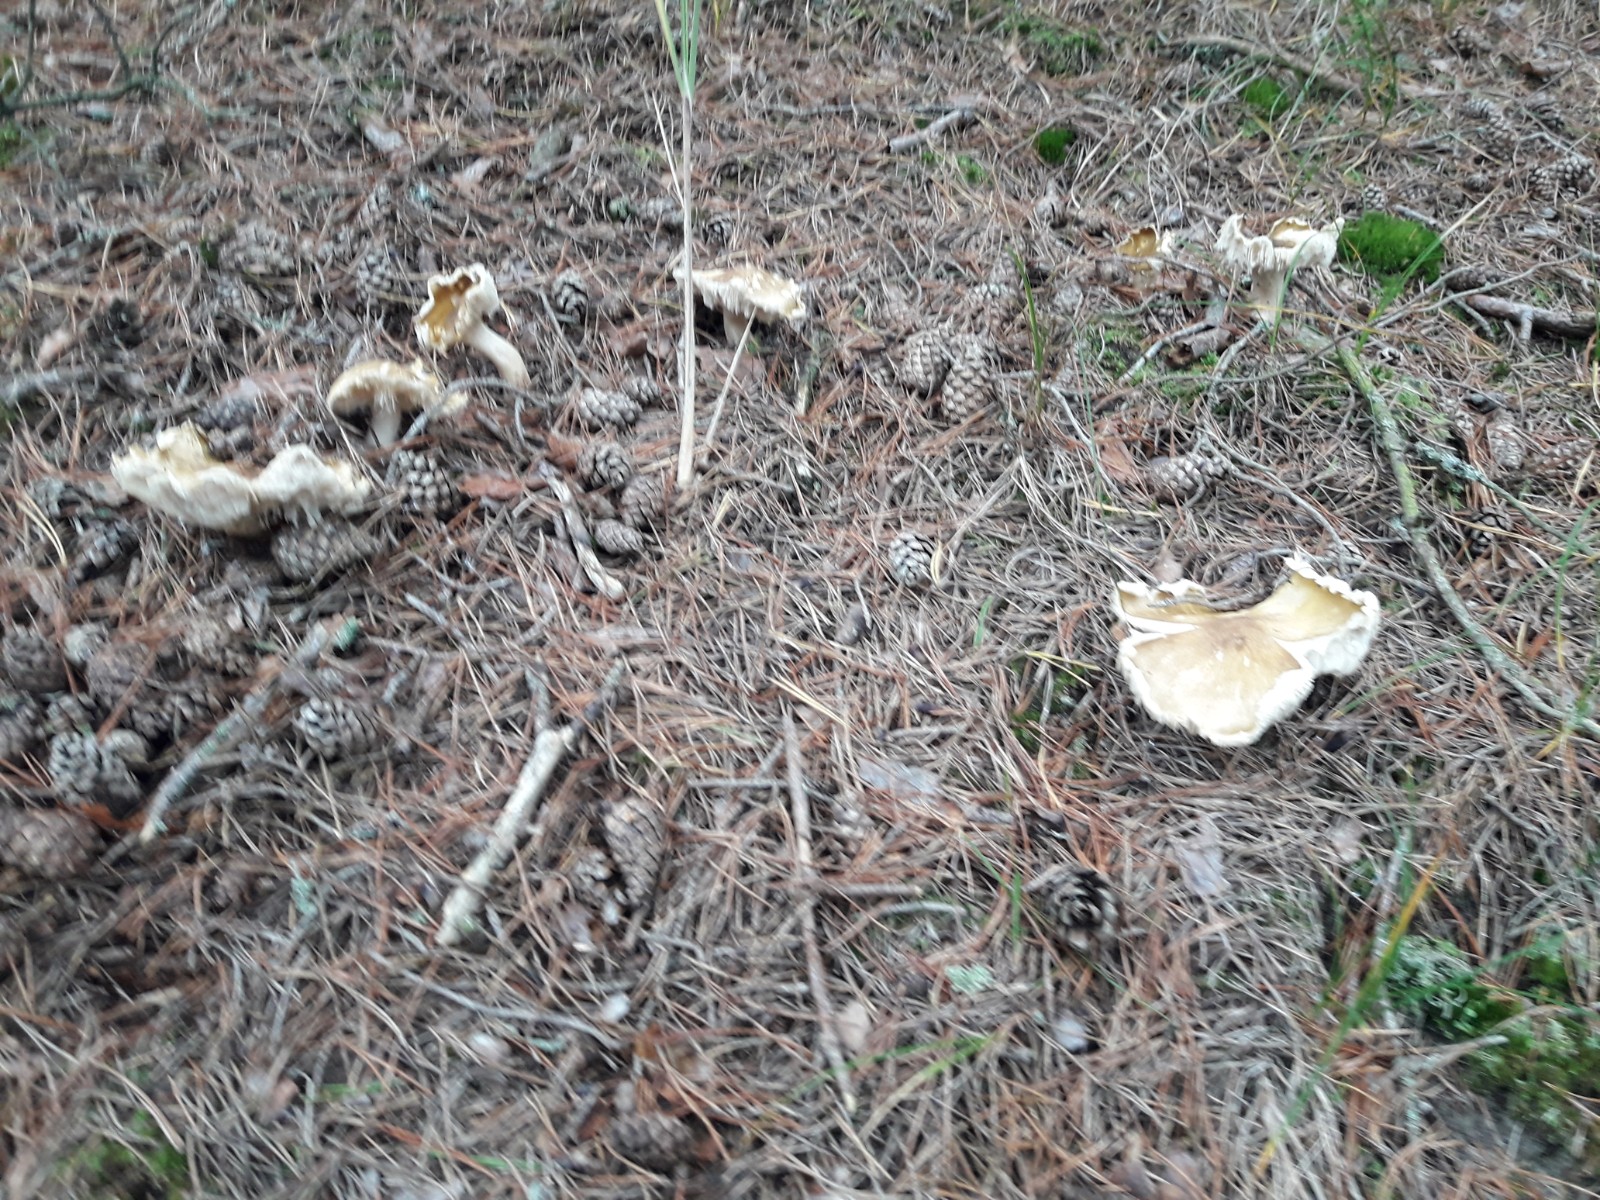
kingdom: Fungi
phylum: Basidiomycota
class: Agaricomycetes
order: Agaricales
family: Tricholomataceae
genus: Tricholoma
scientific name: Tricholoma arvernense
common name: kantet ridderhat
